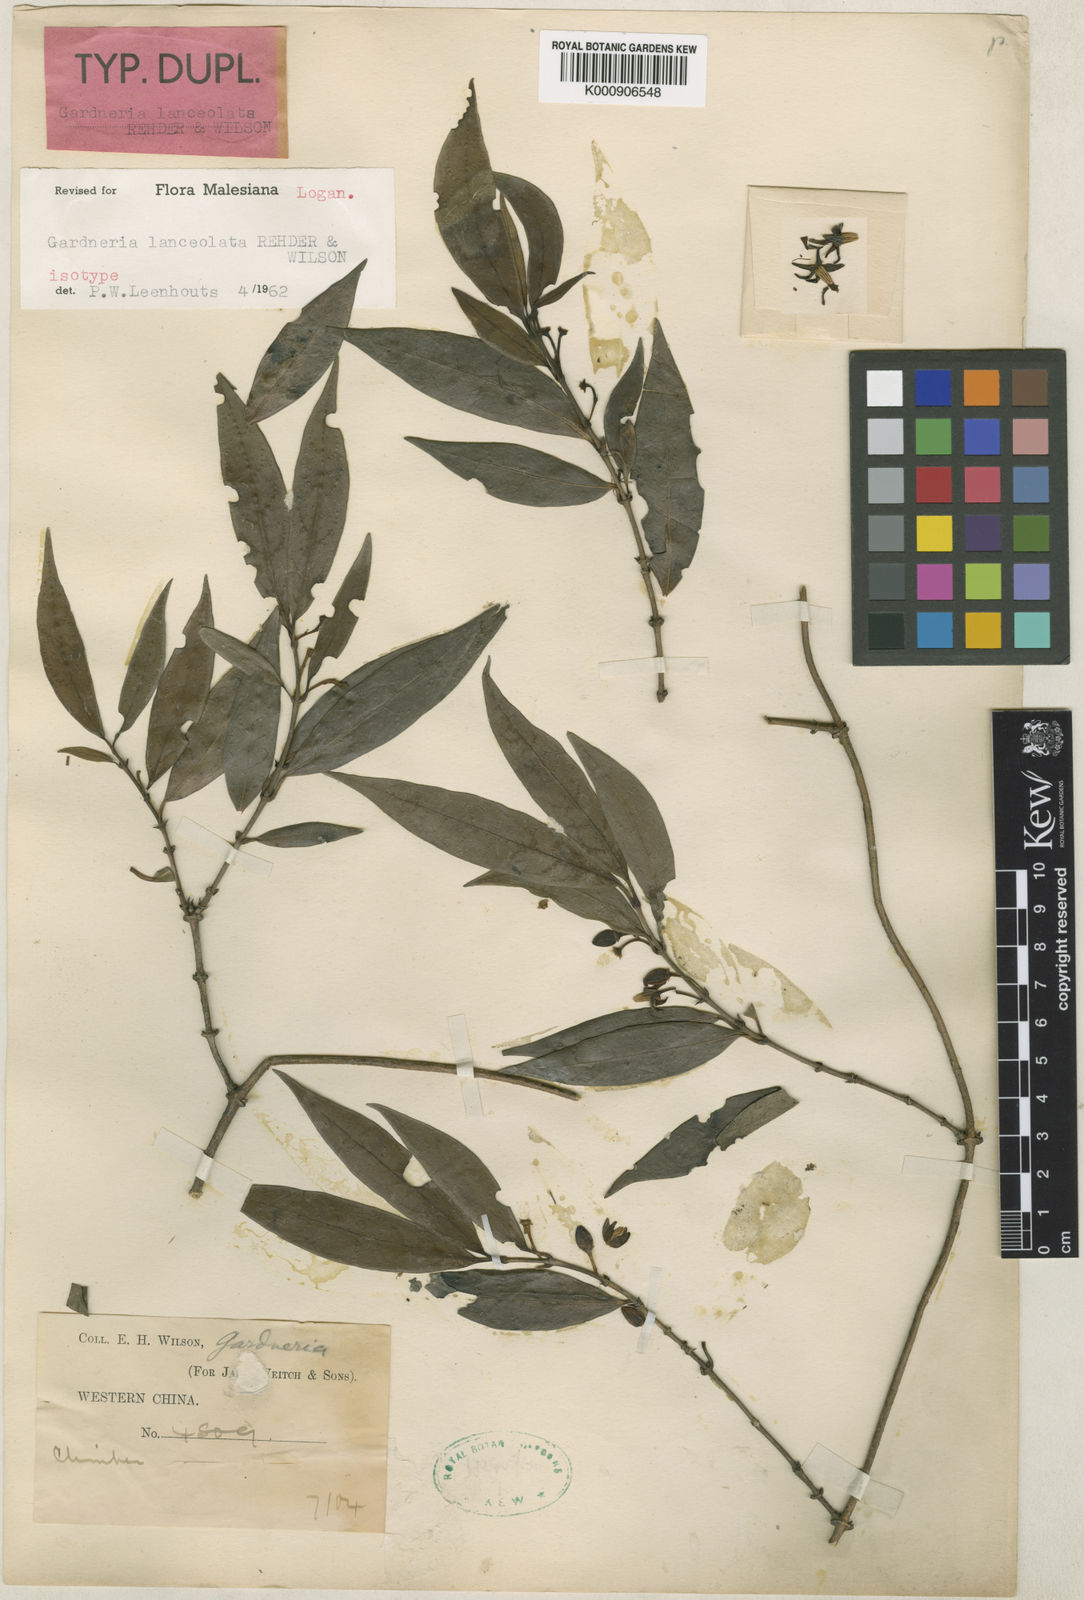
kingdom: Plantae
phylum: Tracheophyta
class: Magnoliopsida
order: Gentianales
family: Loganiaceae
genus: Gardneria
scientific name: Gardneria lanceolata
